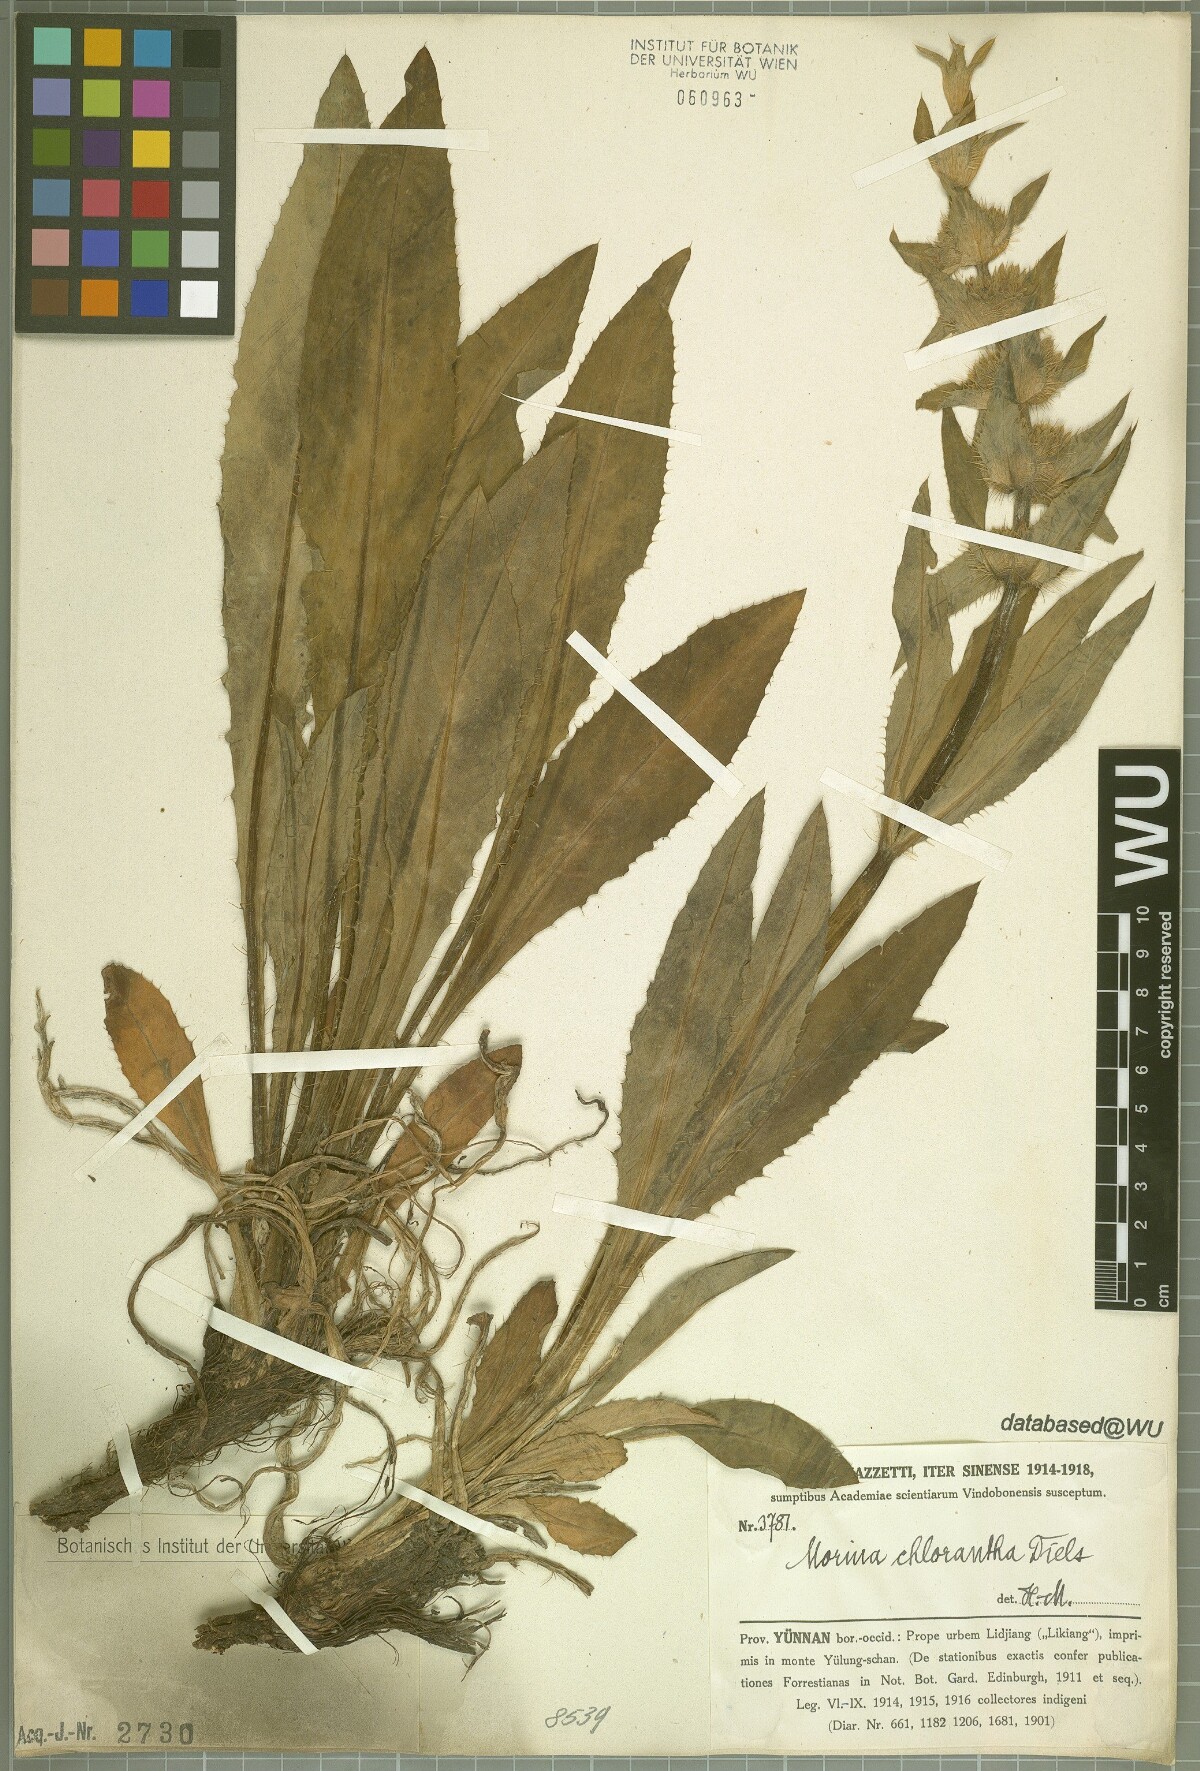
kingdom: Plantae
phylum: Tracheophyta
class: Magnoliopsida
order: Dipsacales
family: Caprifoliaceae
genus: Cryptothladia
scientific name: Cryptothladia chlorantha
